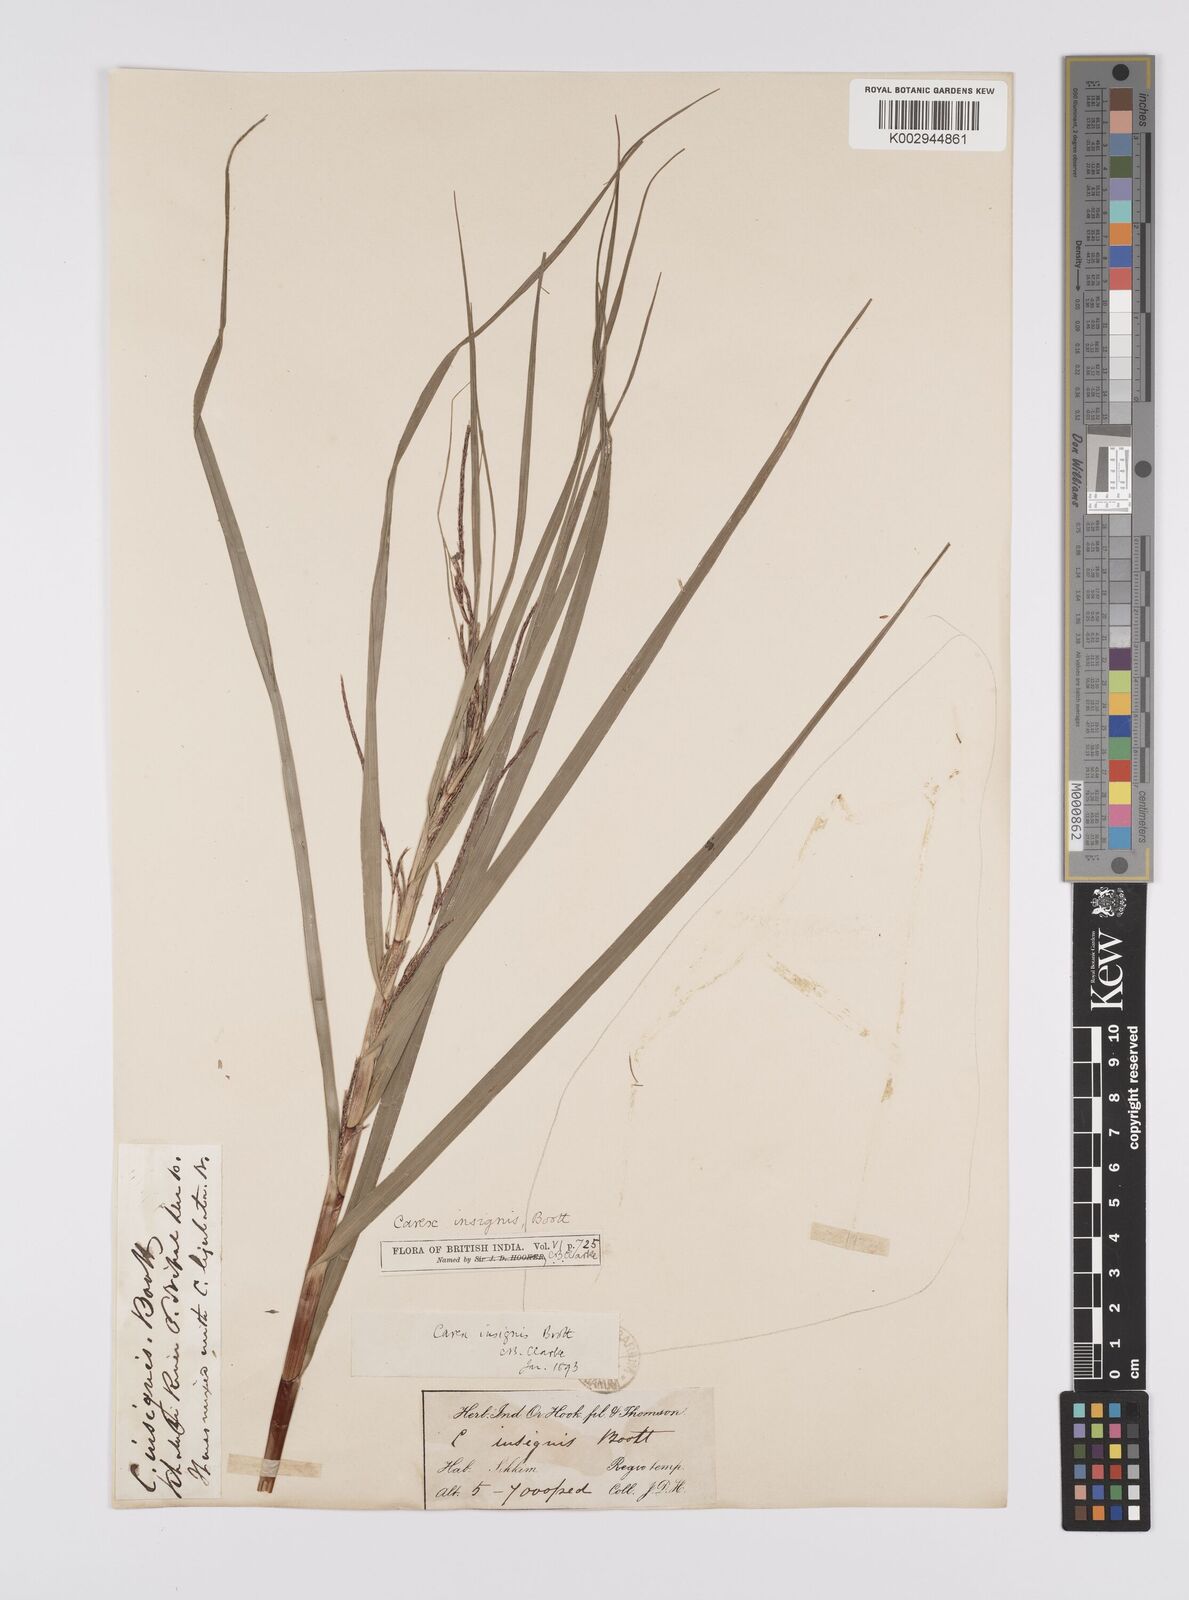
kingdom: Plantae
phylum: Tracheophyta
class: Liliopsida
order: Poales
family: Cyperaceae
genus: Carex
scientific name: Carex insignis
